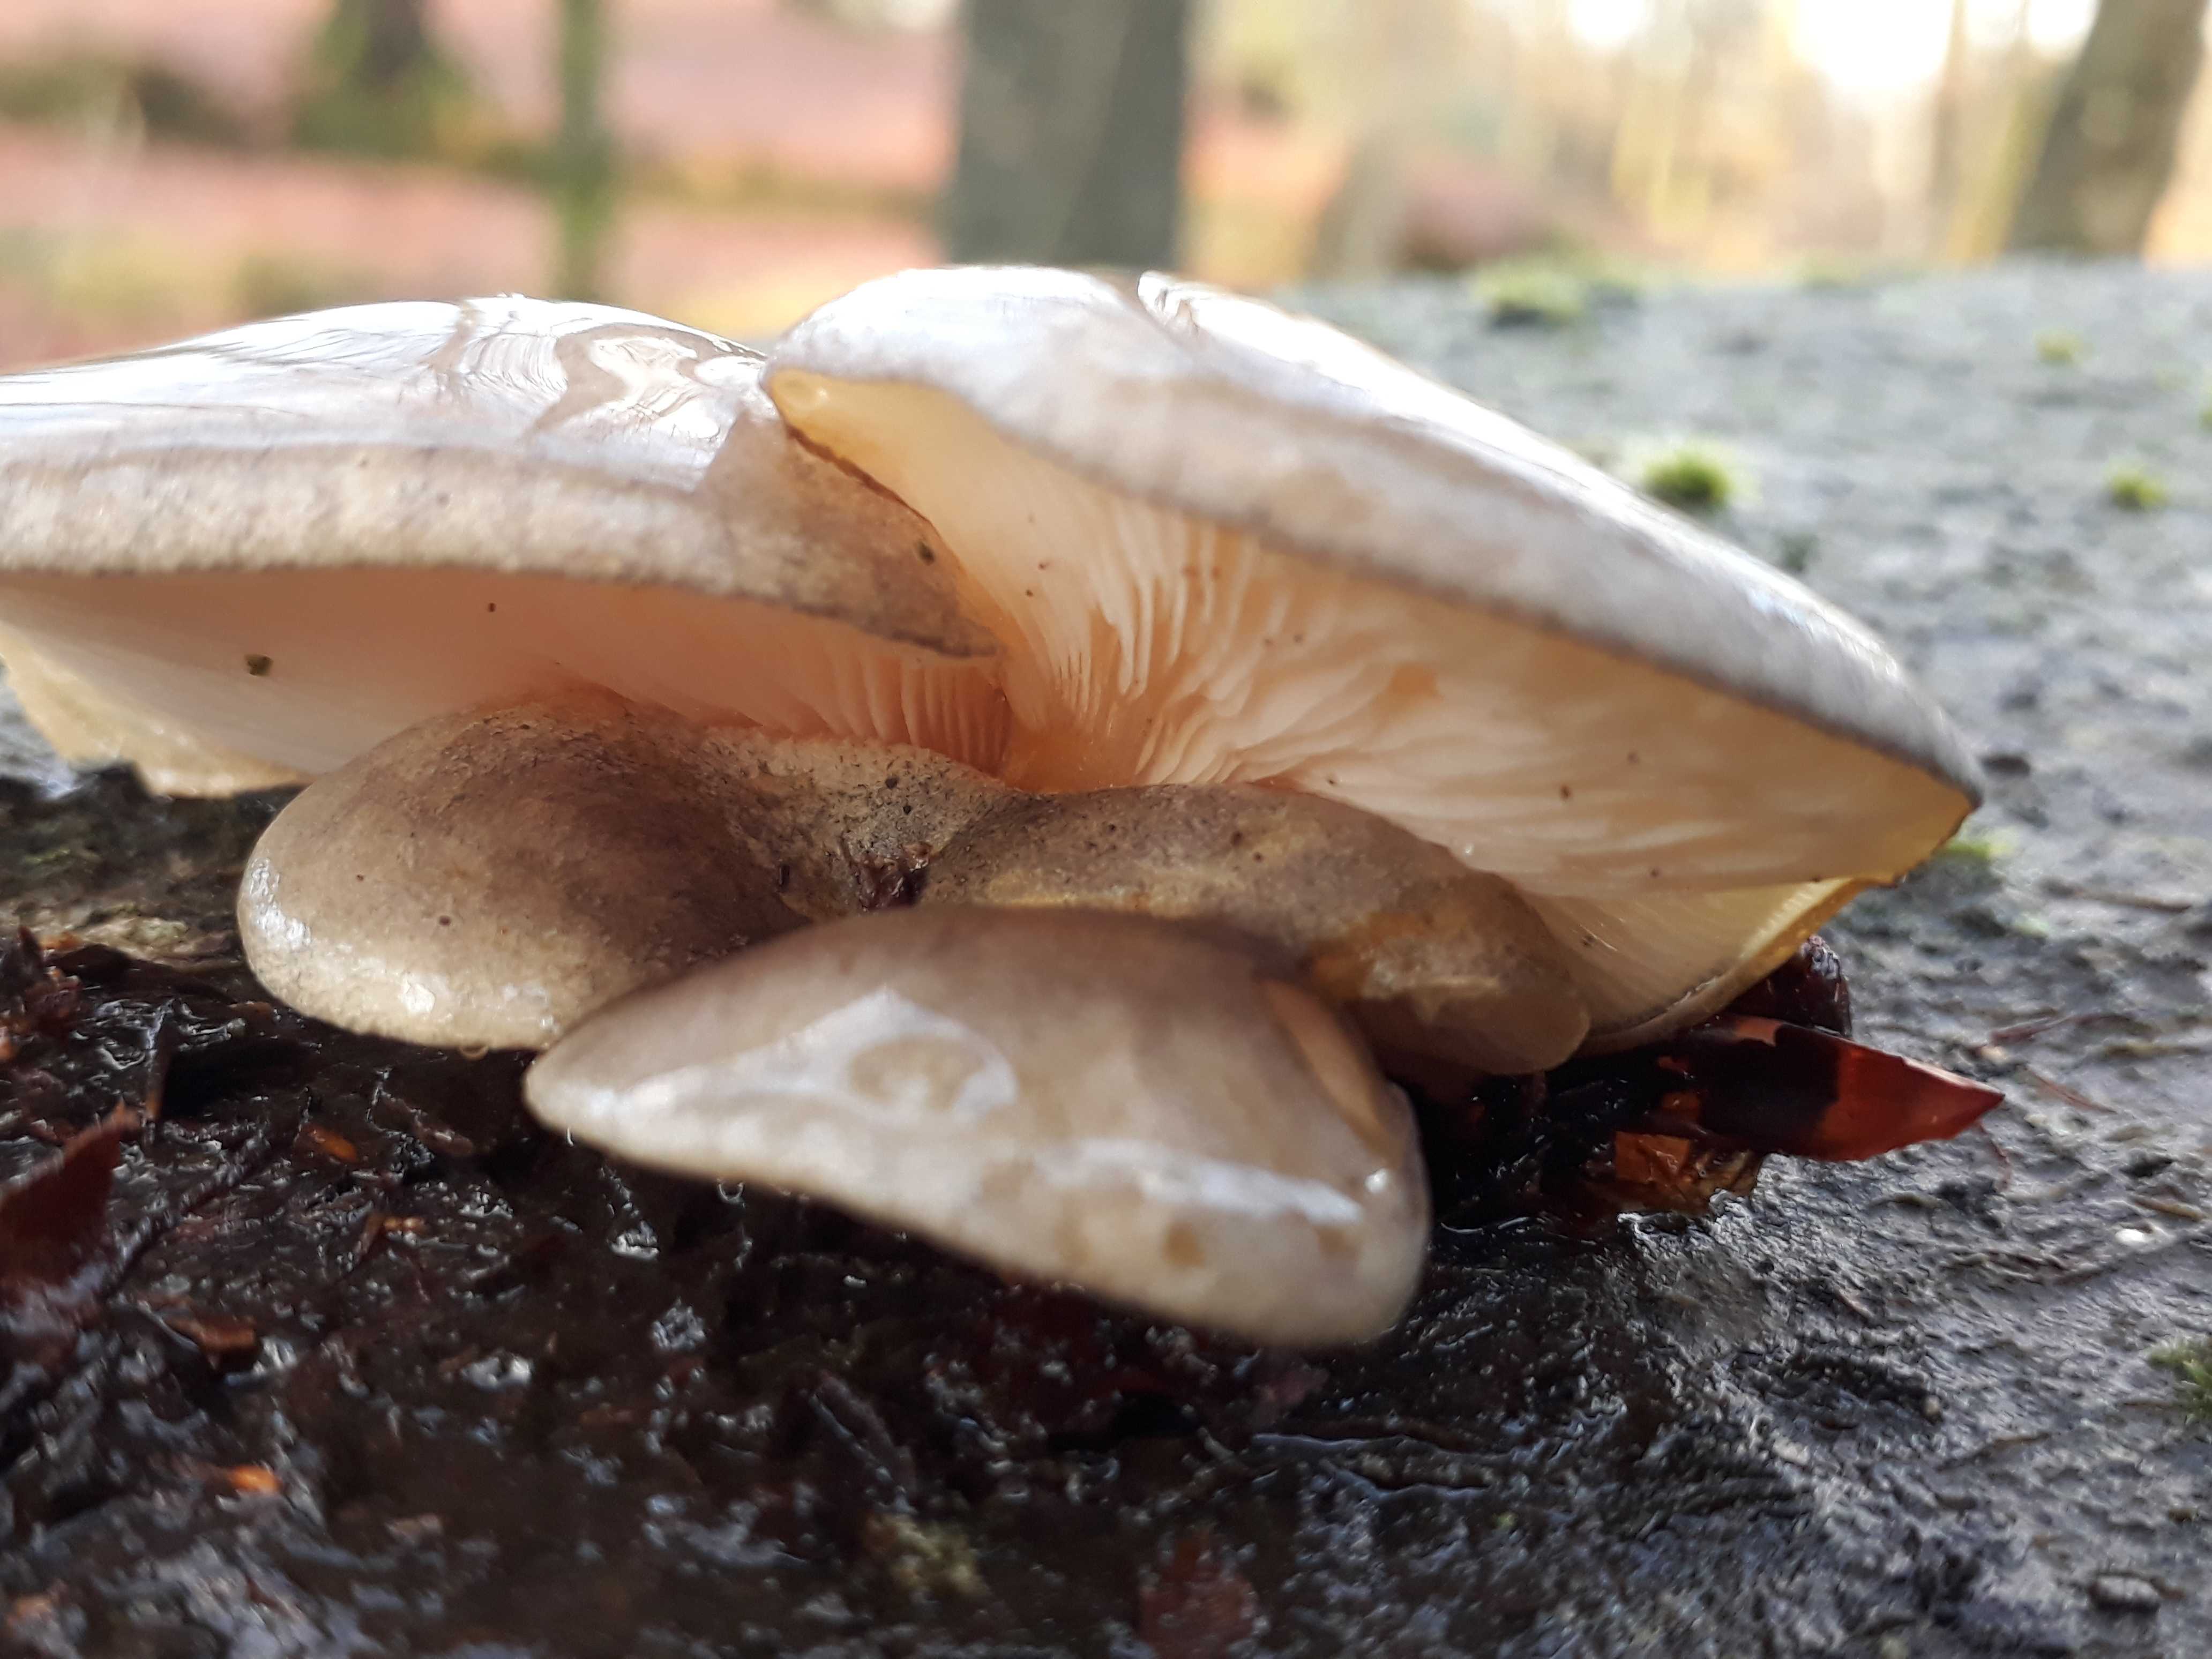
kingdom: Fungi
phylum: Basidiomycota
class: Agaricomycetes
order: Agaricales
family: Sarcomyxaceae
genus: Sarcomyxa
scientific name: Sarcomyxa serotina
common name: gummihat
